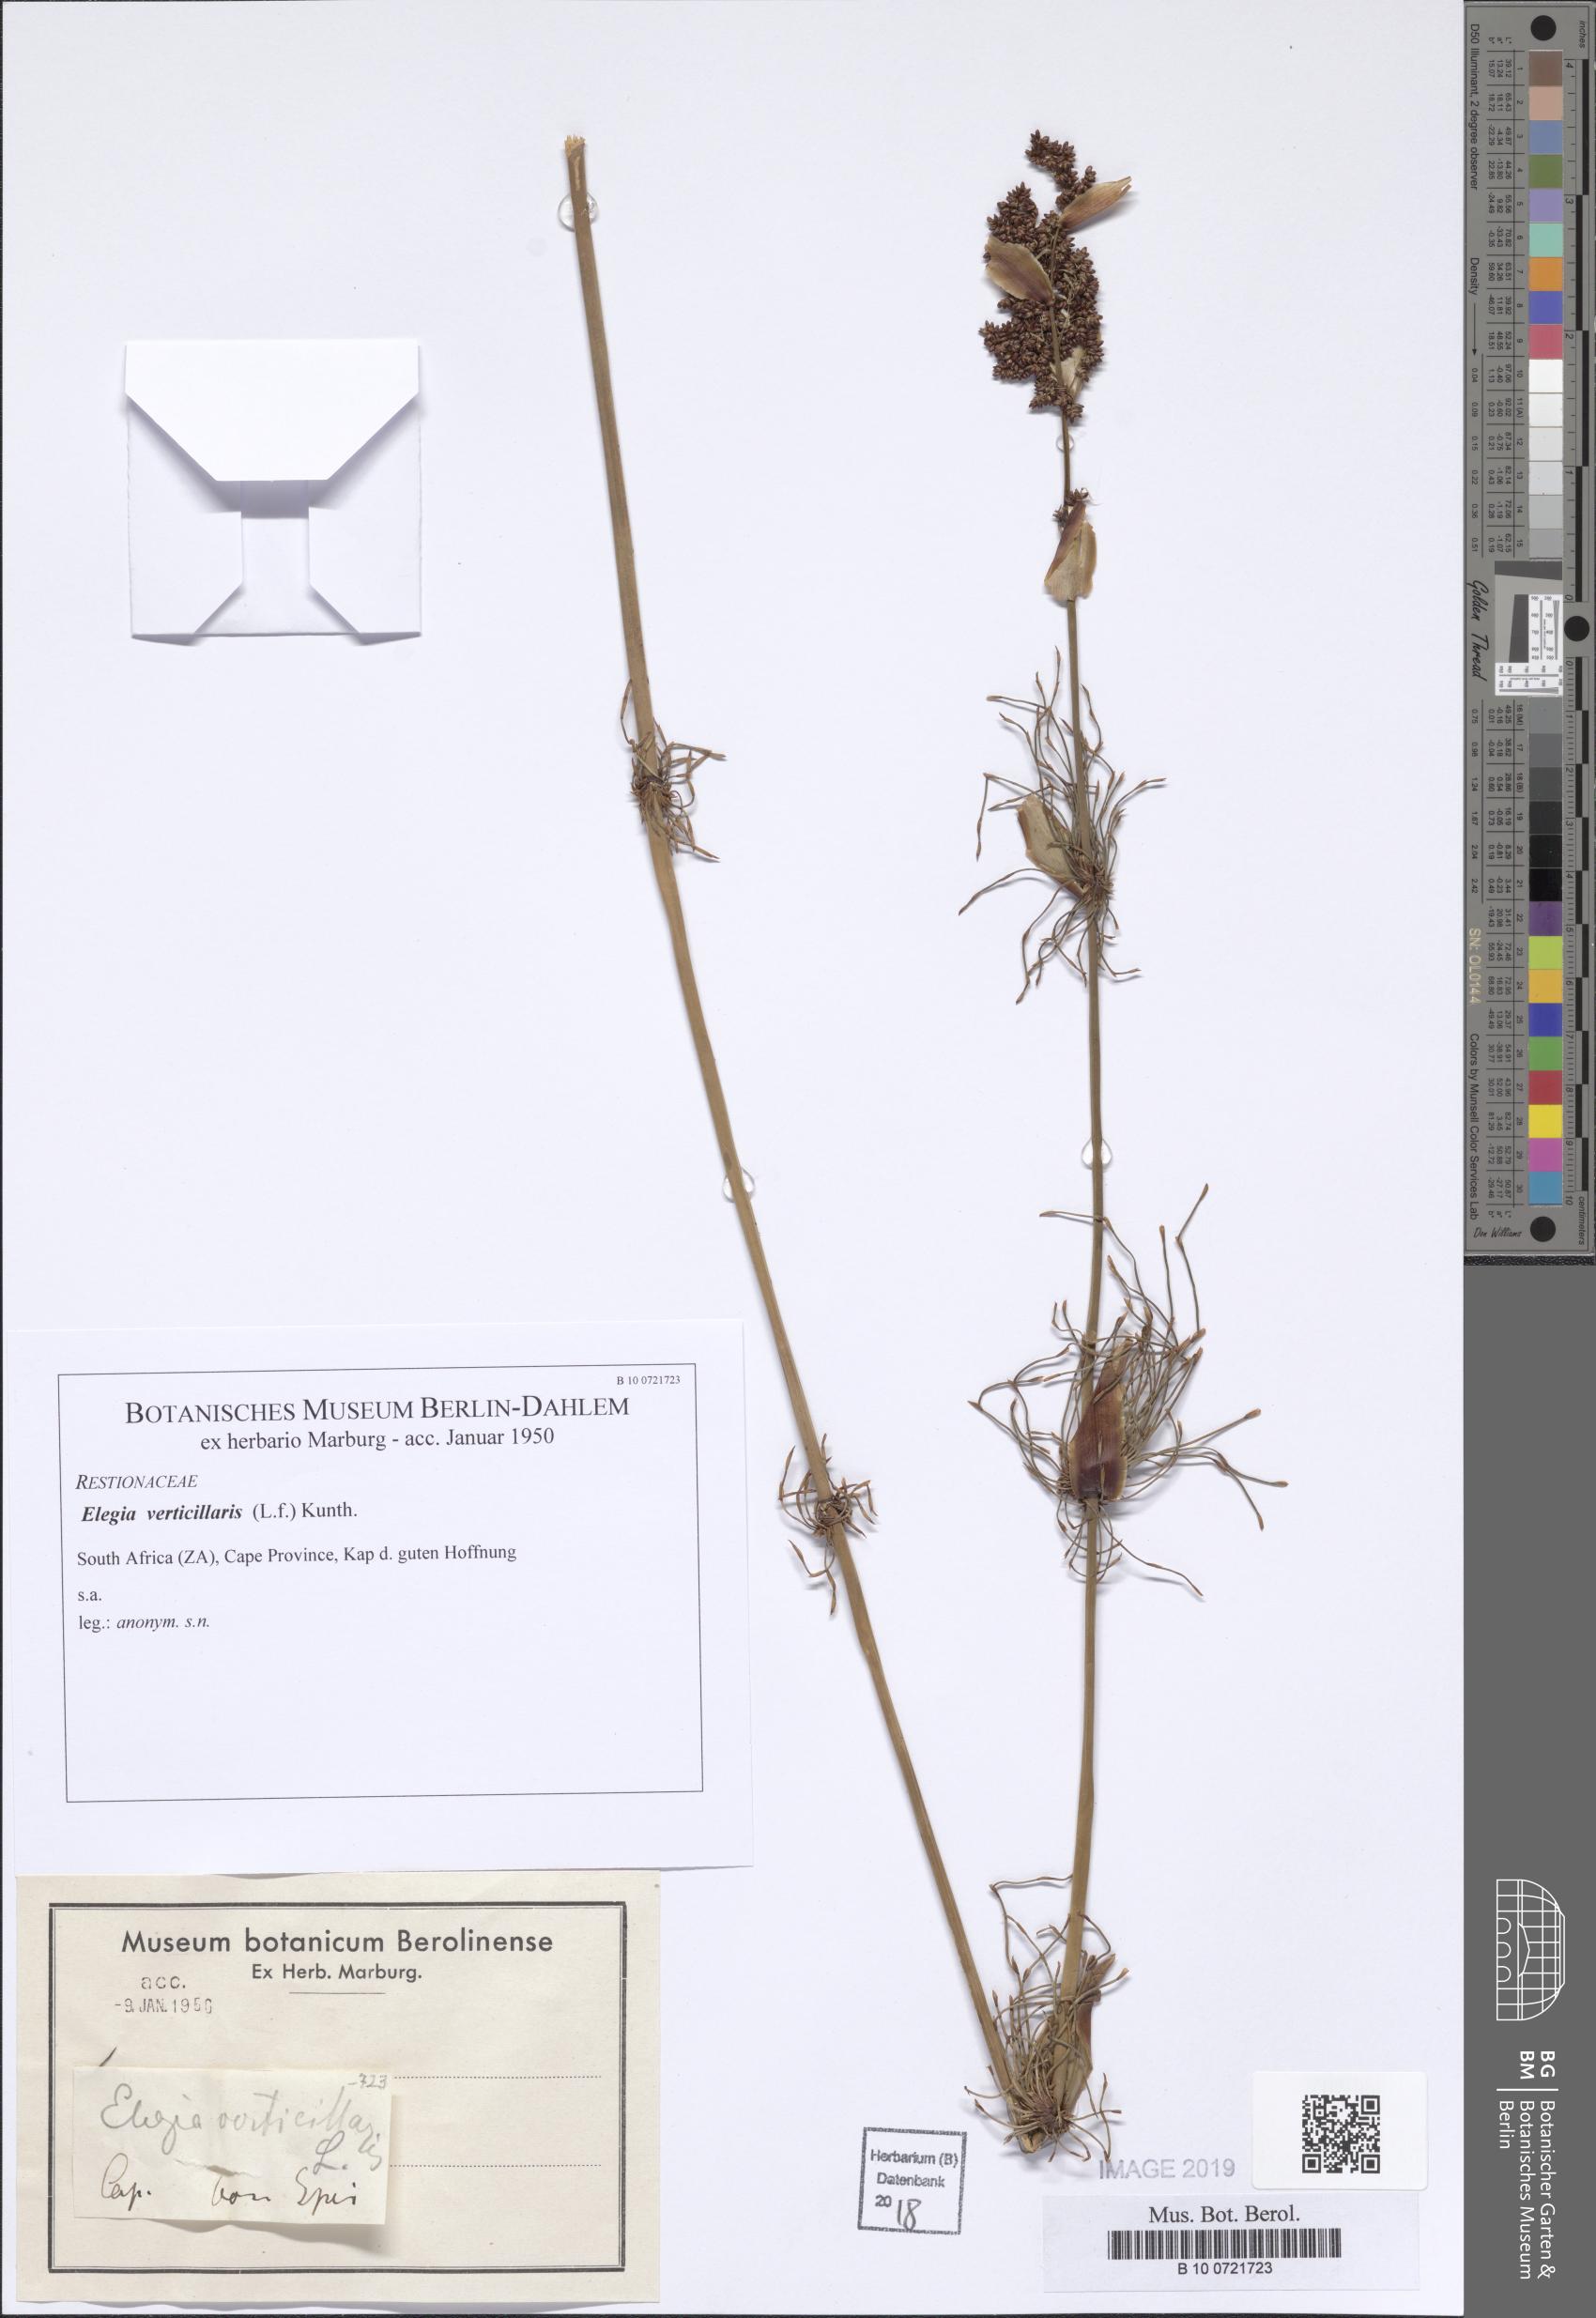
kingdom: Plantae
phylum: Tracheophyta
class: Liliopsida
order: Poales
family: Restionaceae
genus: Elegia
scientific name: Elegia capensis
